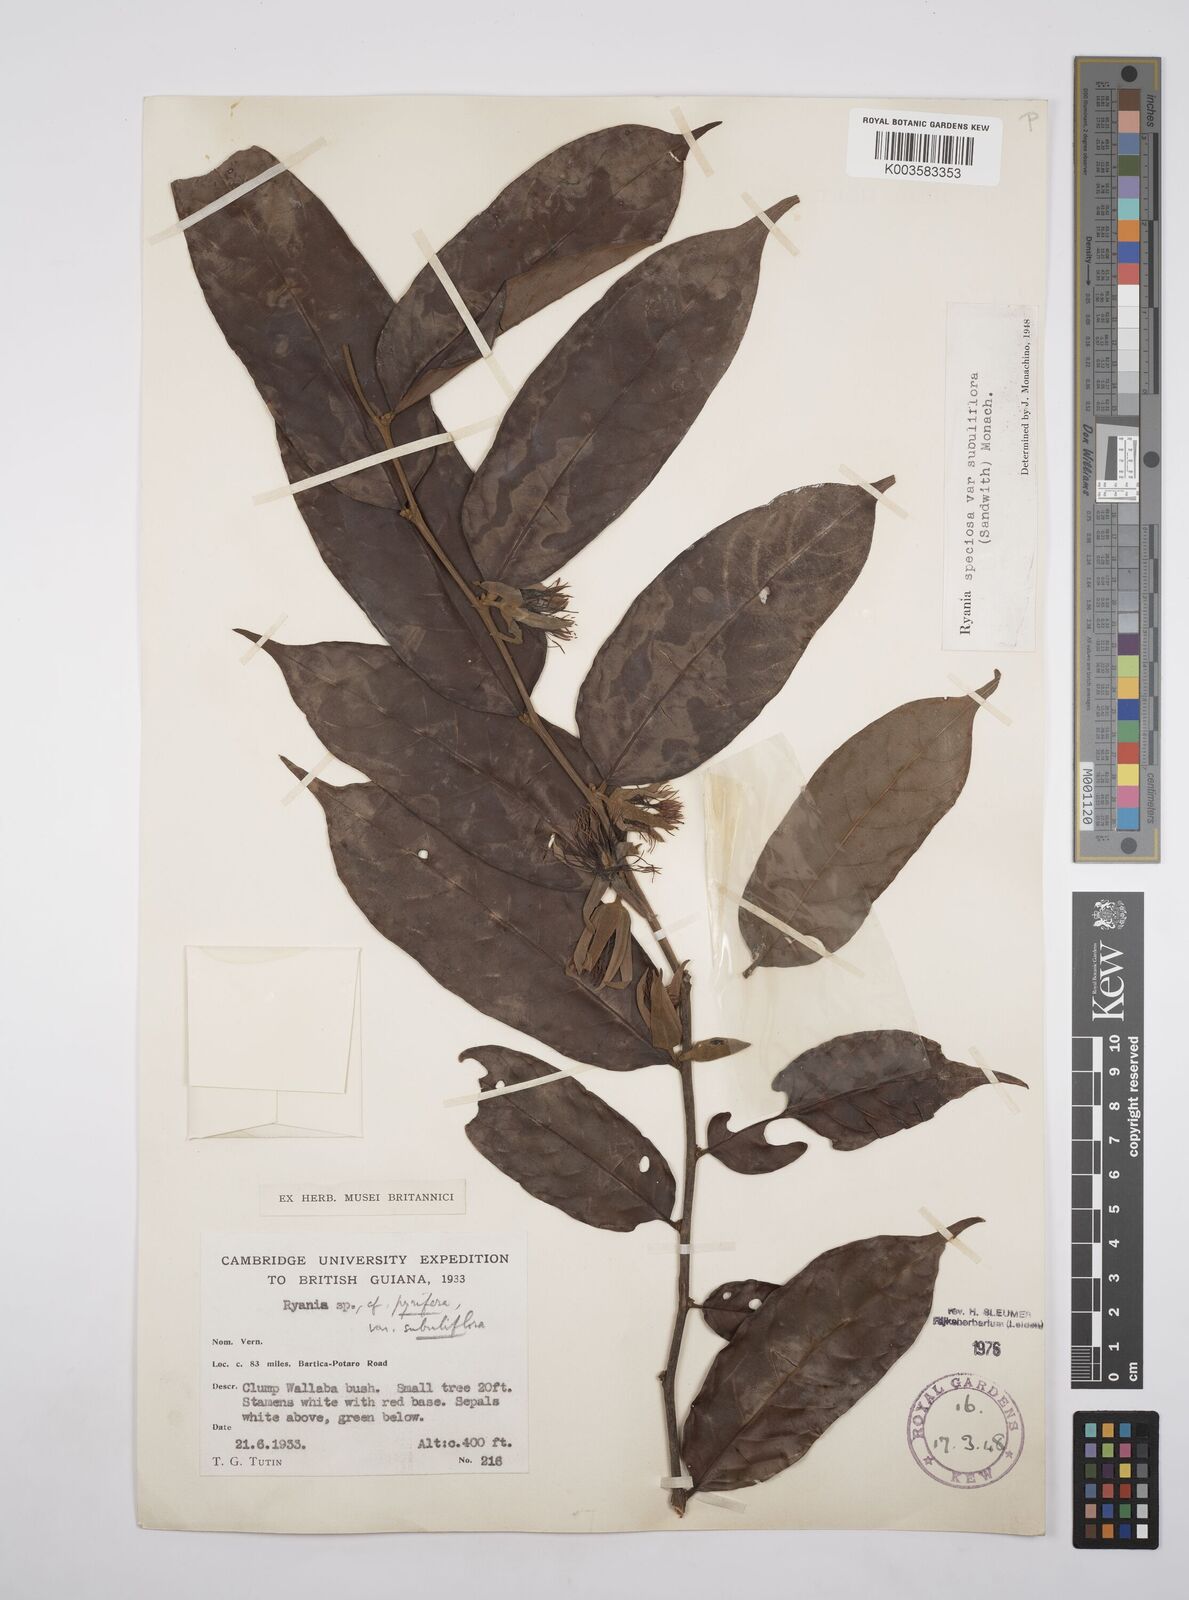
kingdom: Plantae
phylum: Tracheophyta
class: Magnoliopsida
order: Malpighiales
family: Salicaceae
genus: Ryania
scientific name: Ryania speciosa
